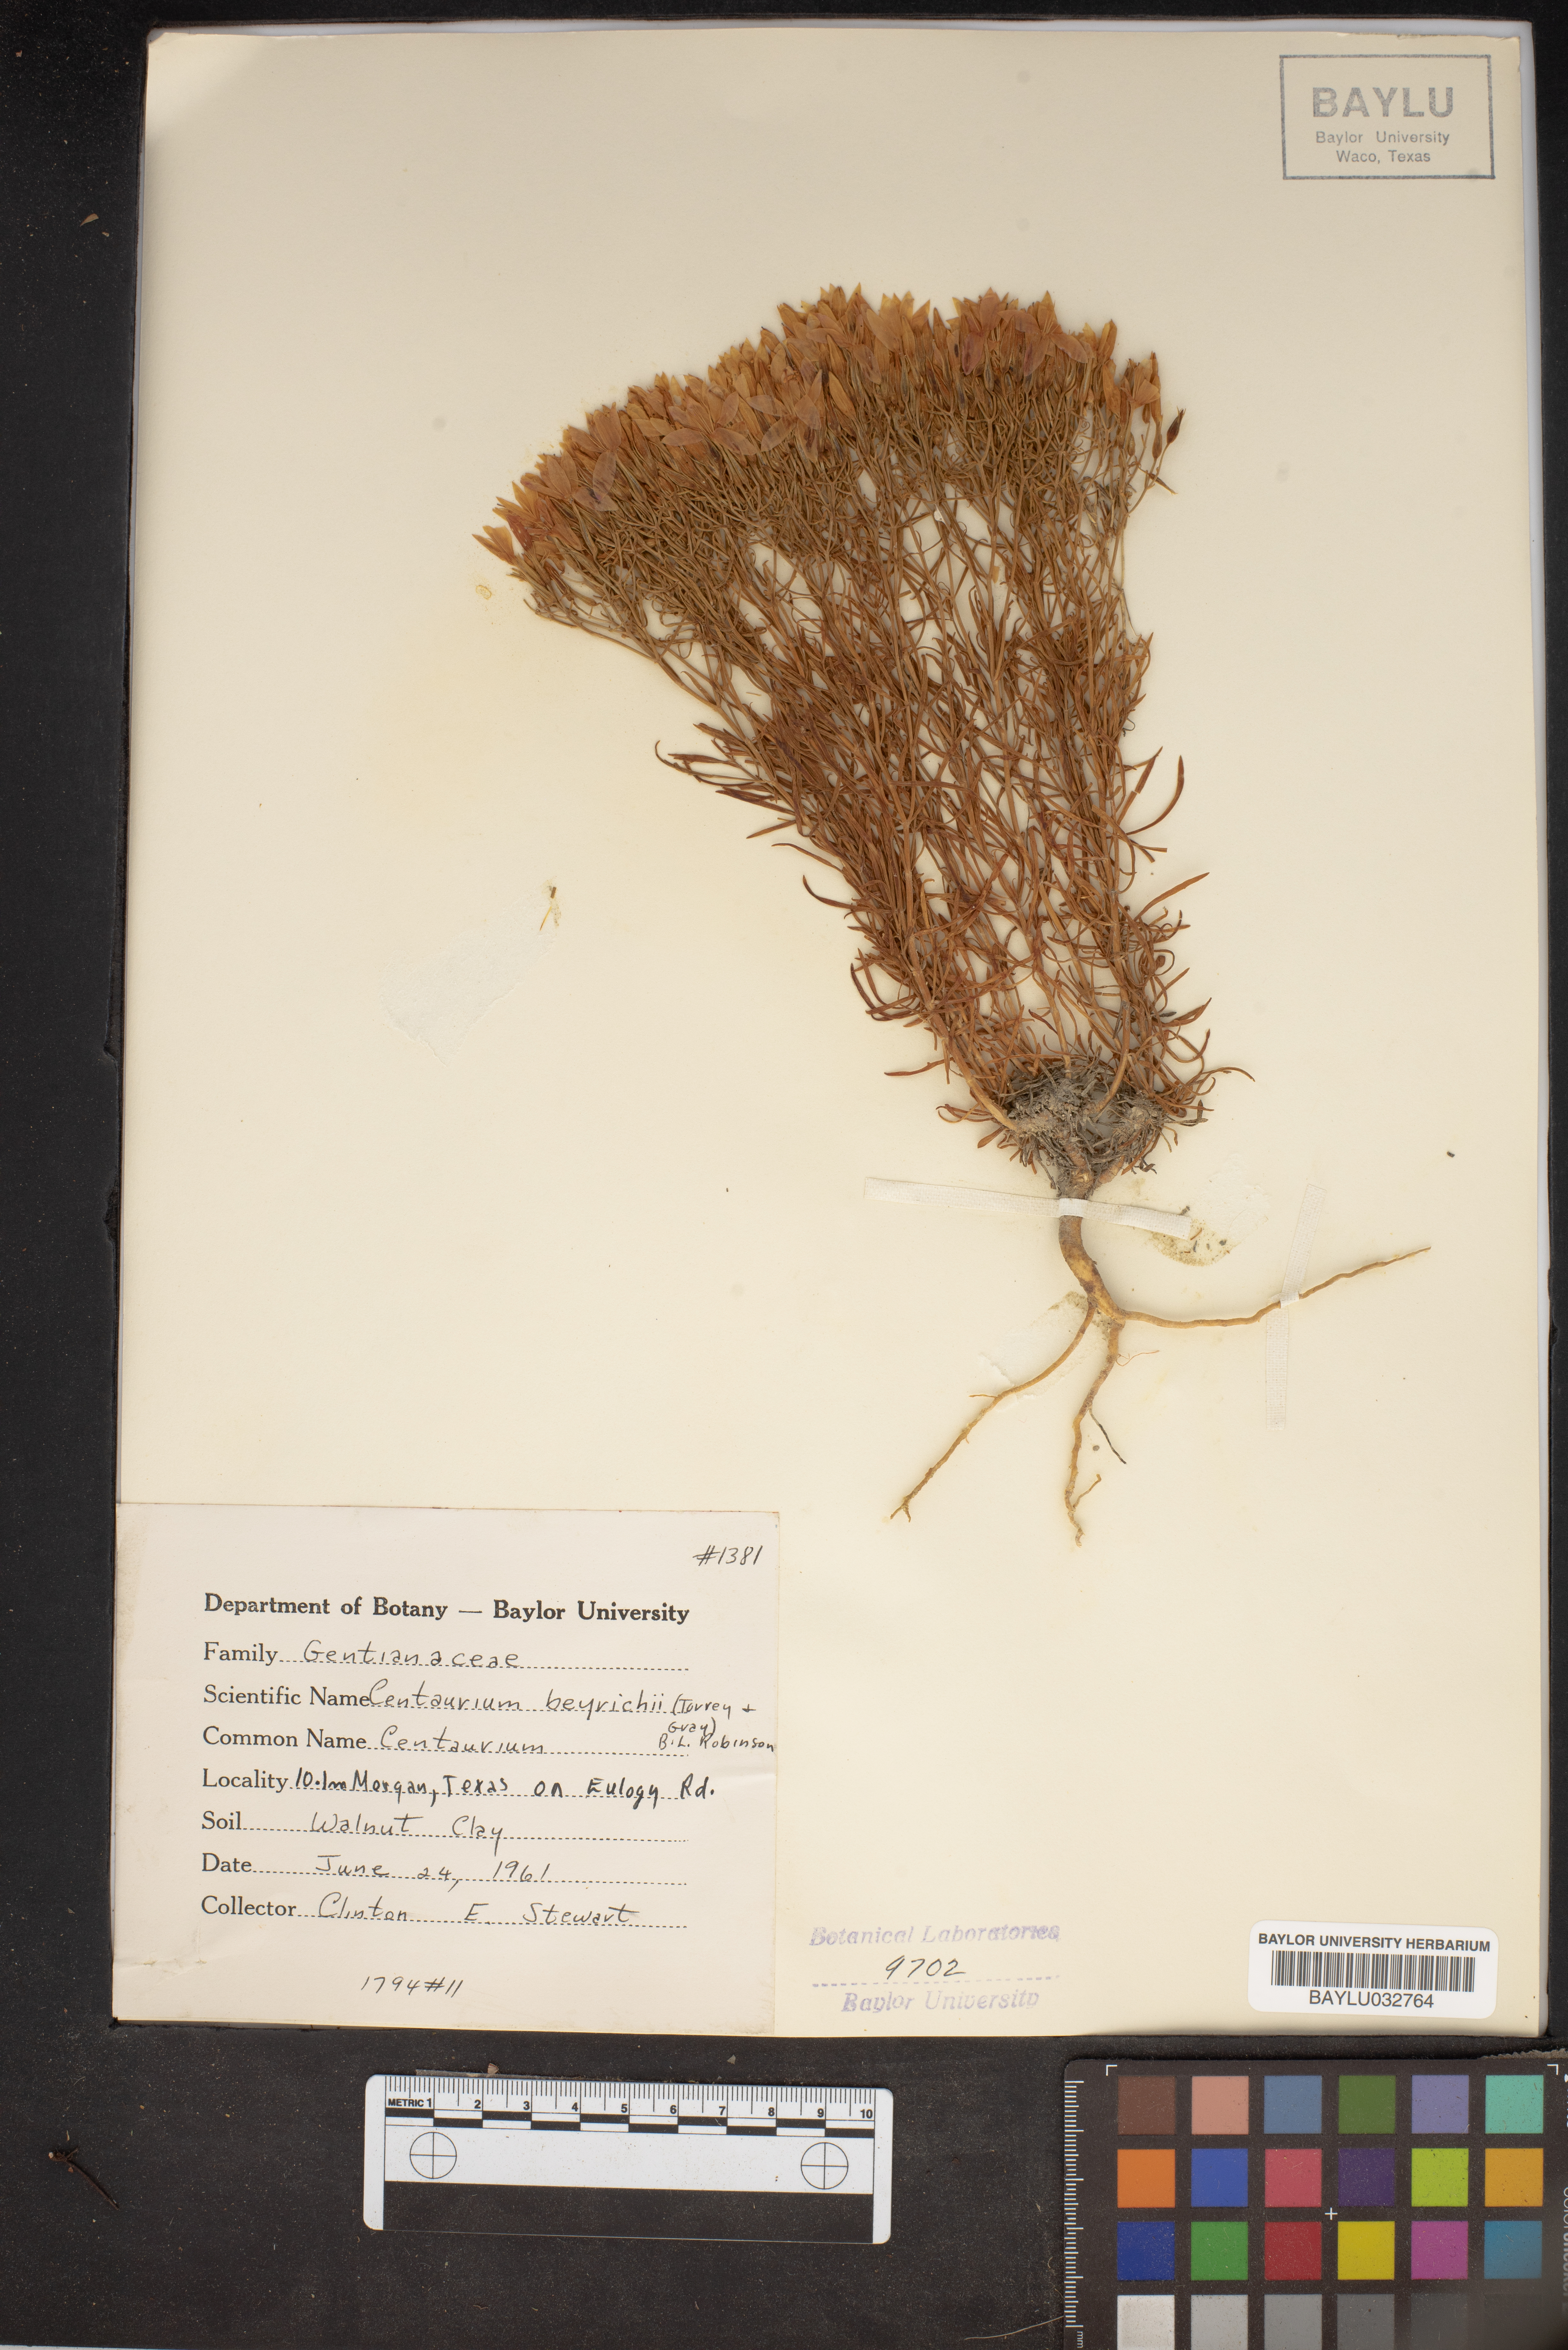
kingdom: Plantae
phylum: Tracheophyta
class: Magnoliopsida
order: Gentianales
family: Gentianaceae
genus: Zeltnera
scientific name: Zeltnera beyrichii
